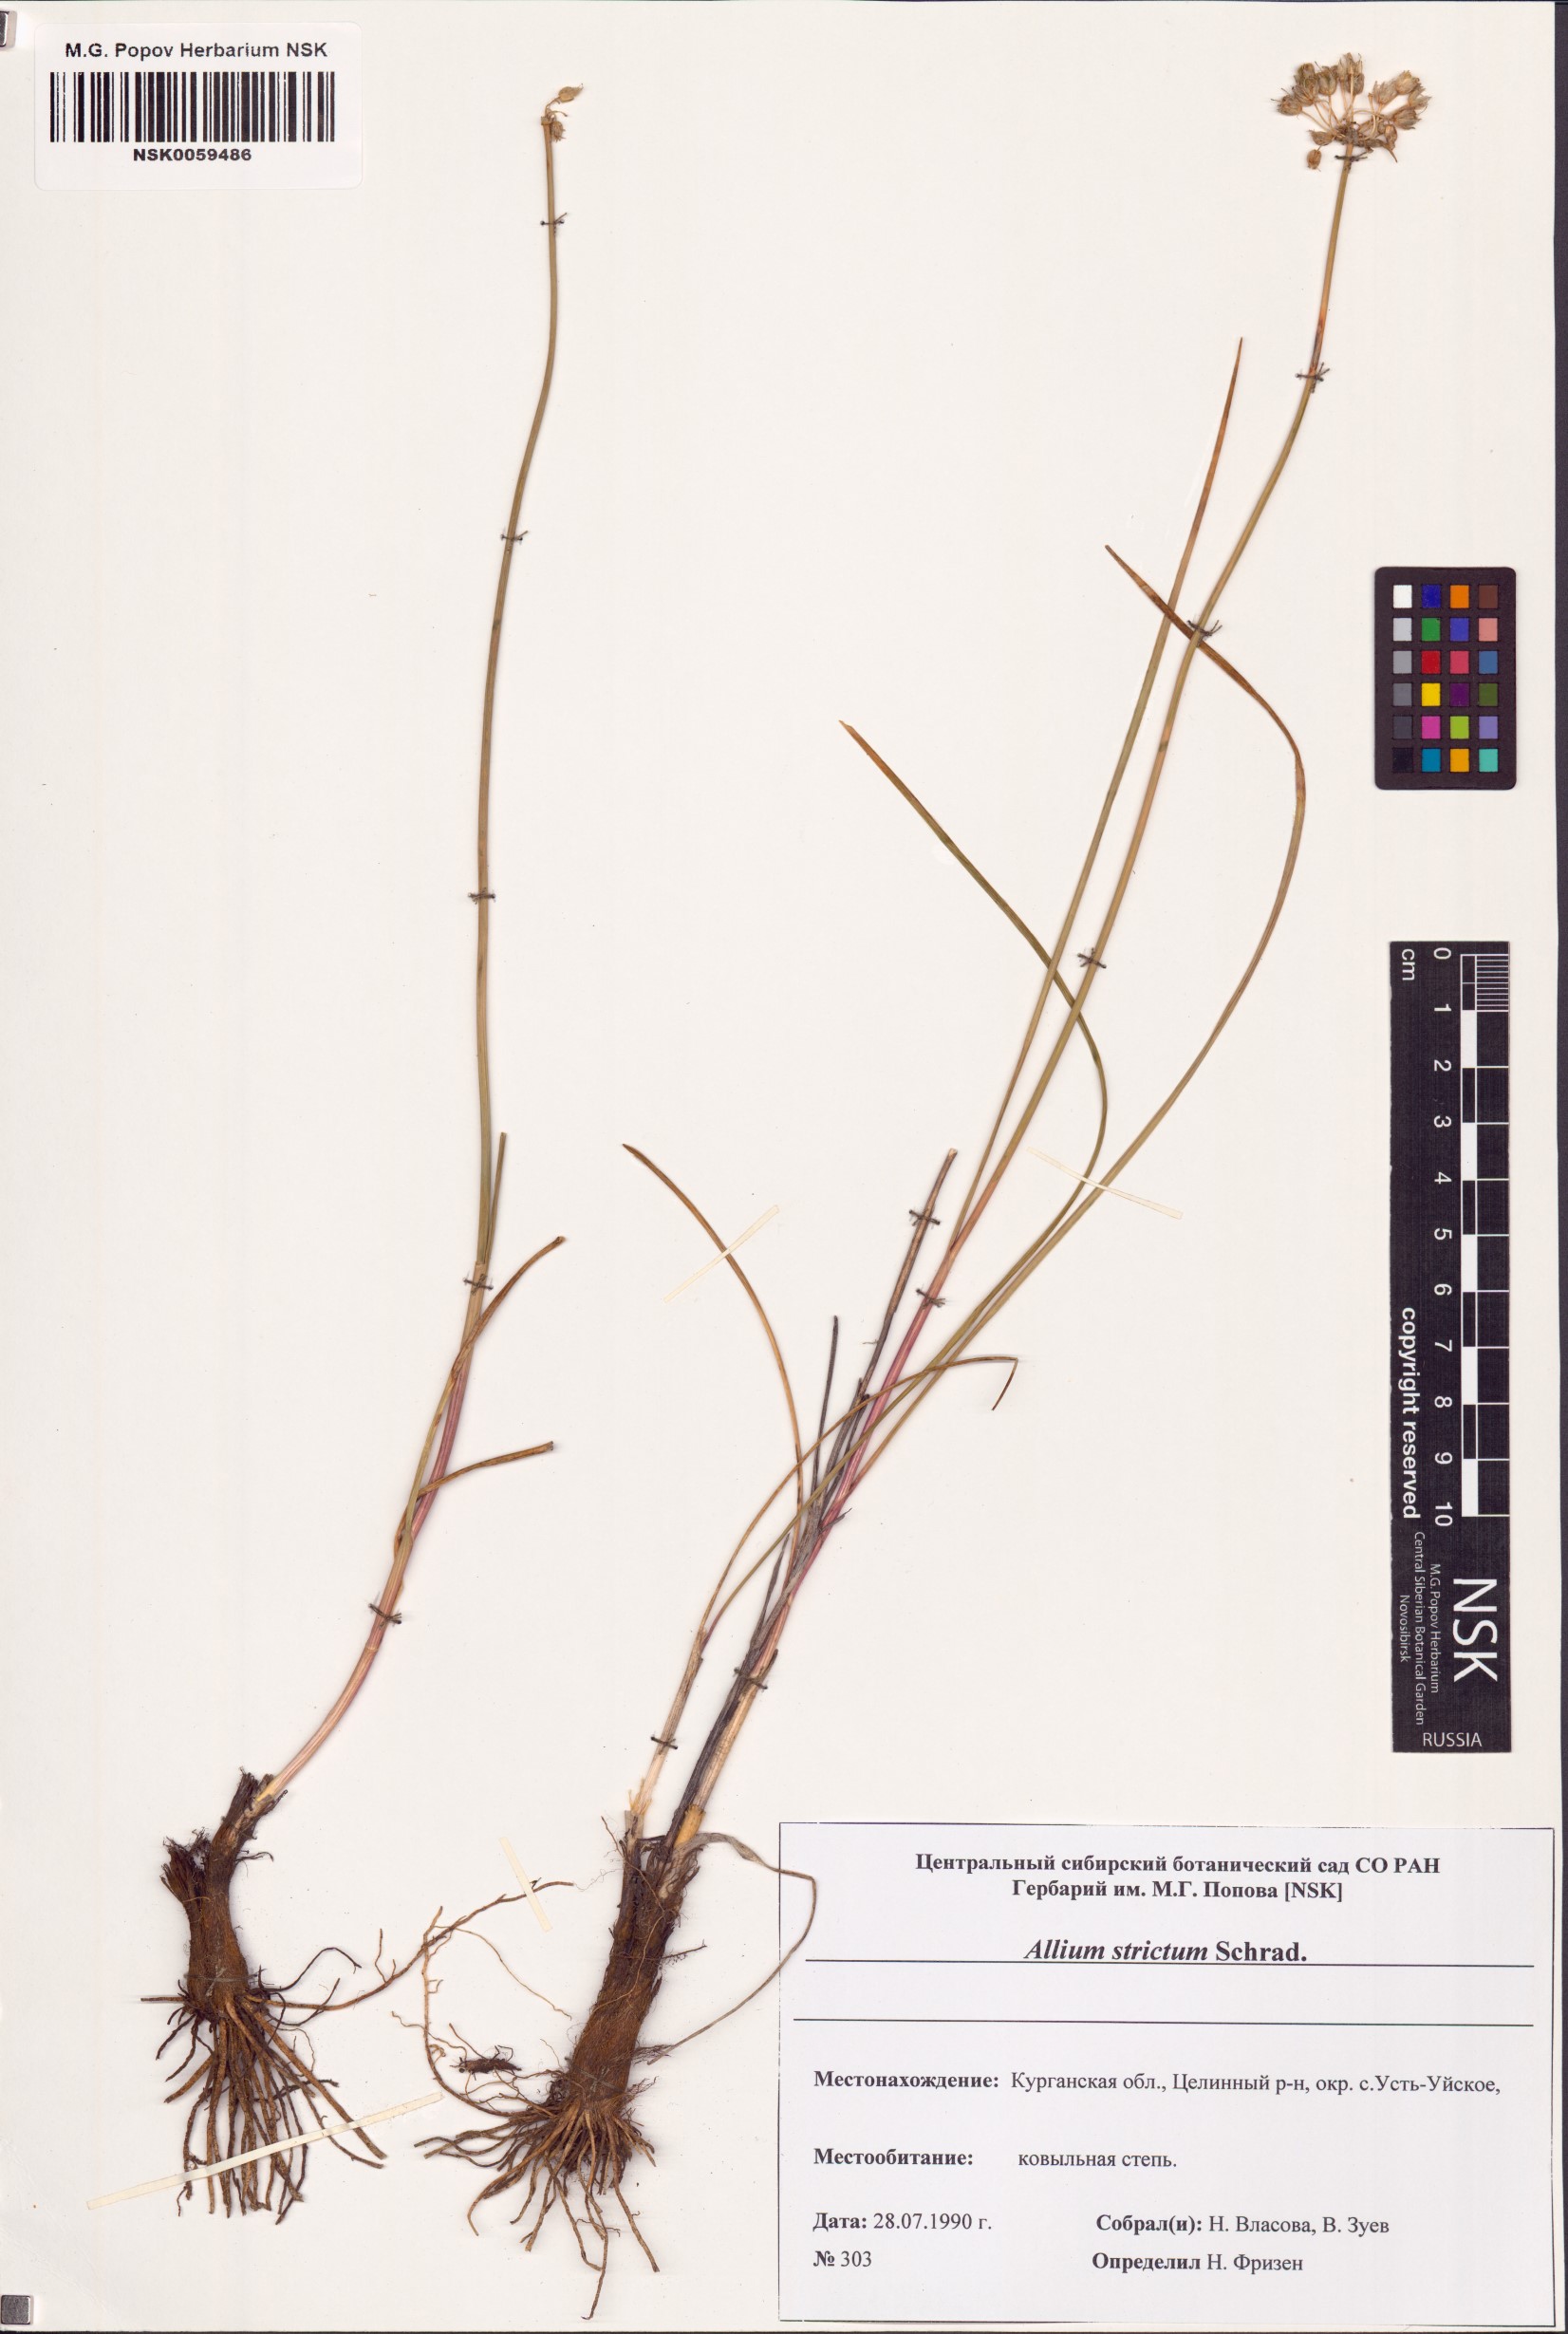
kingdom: Plantae
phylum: Tracheophyta
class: Liliopsida
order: Asparagales
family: Amaryllidaceae
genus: Allium
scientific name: Allium strictum
